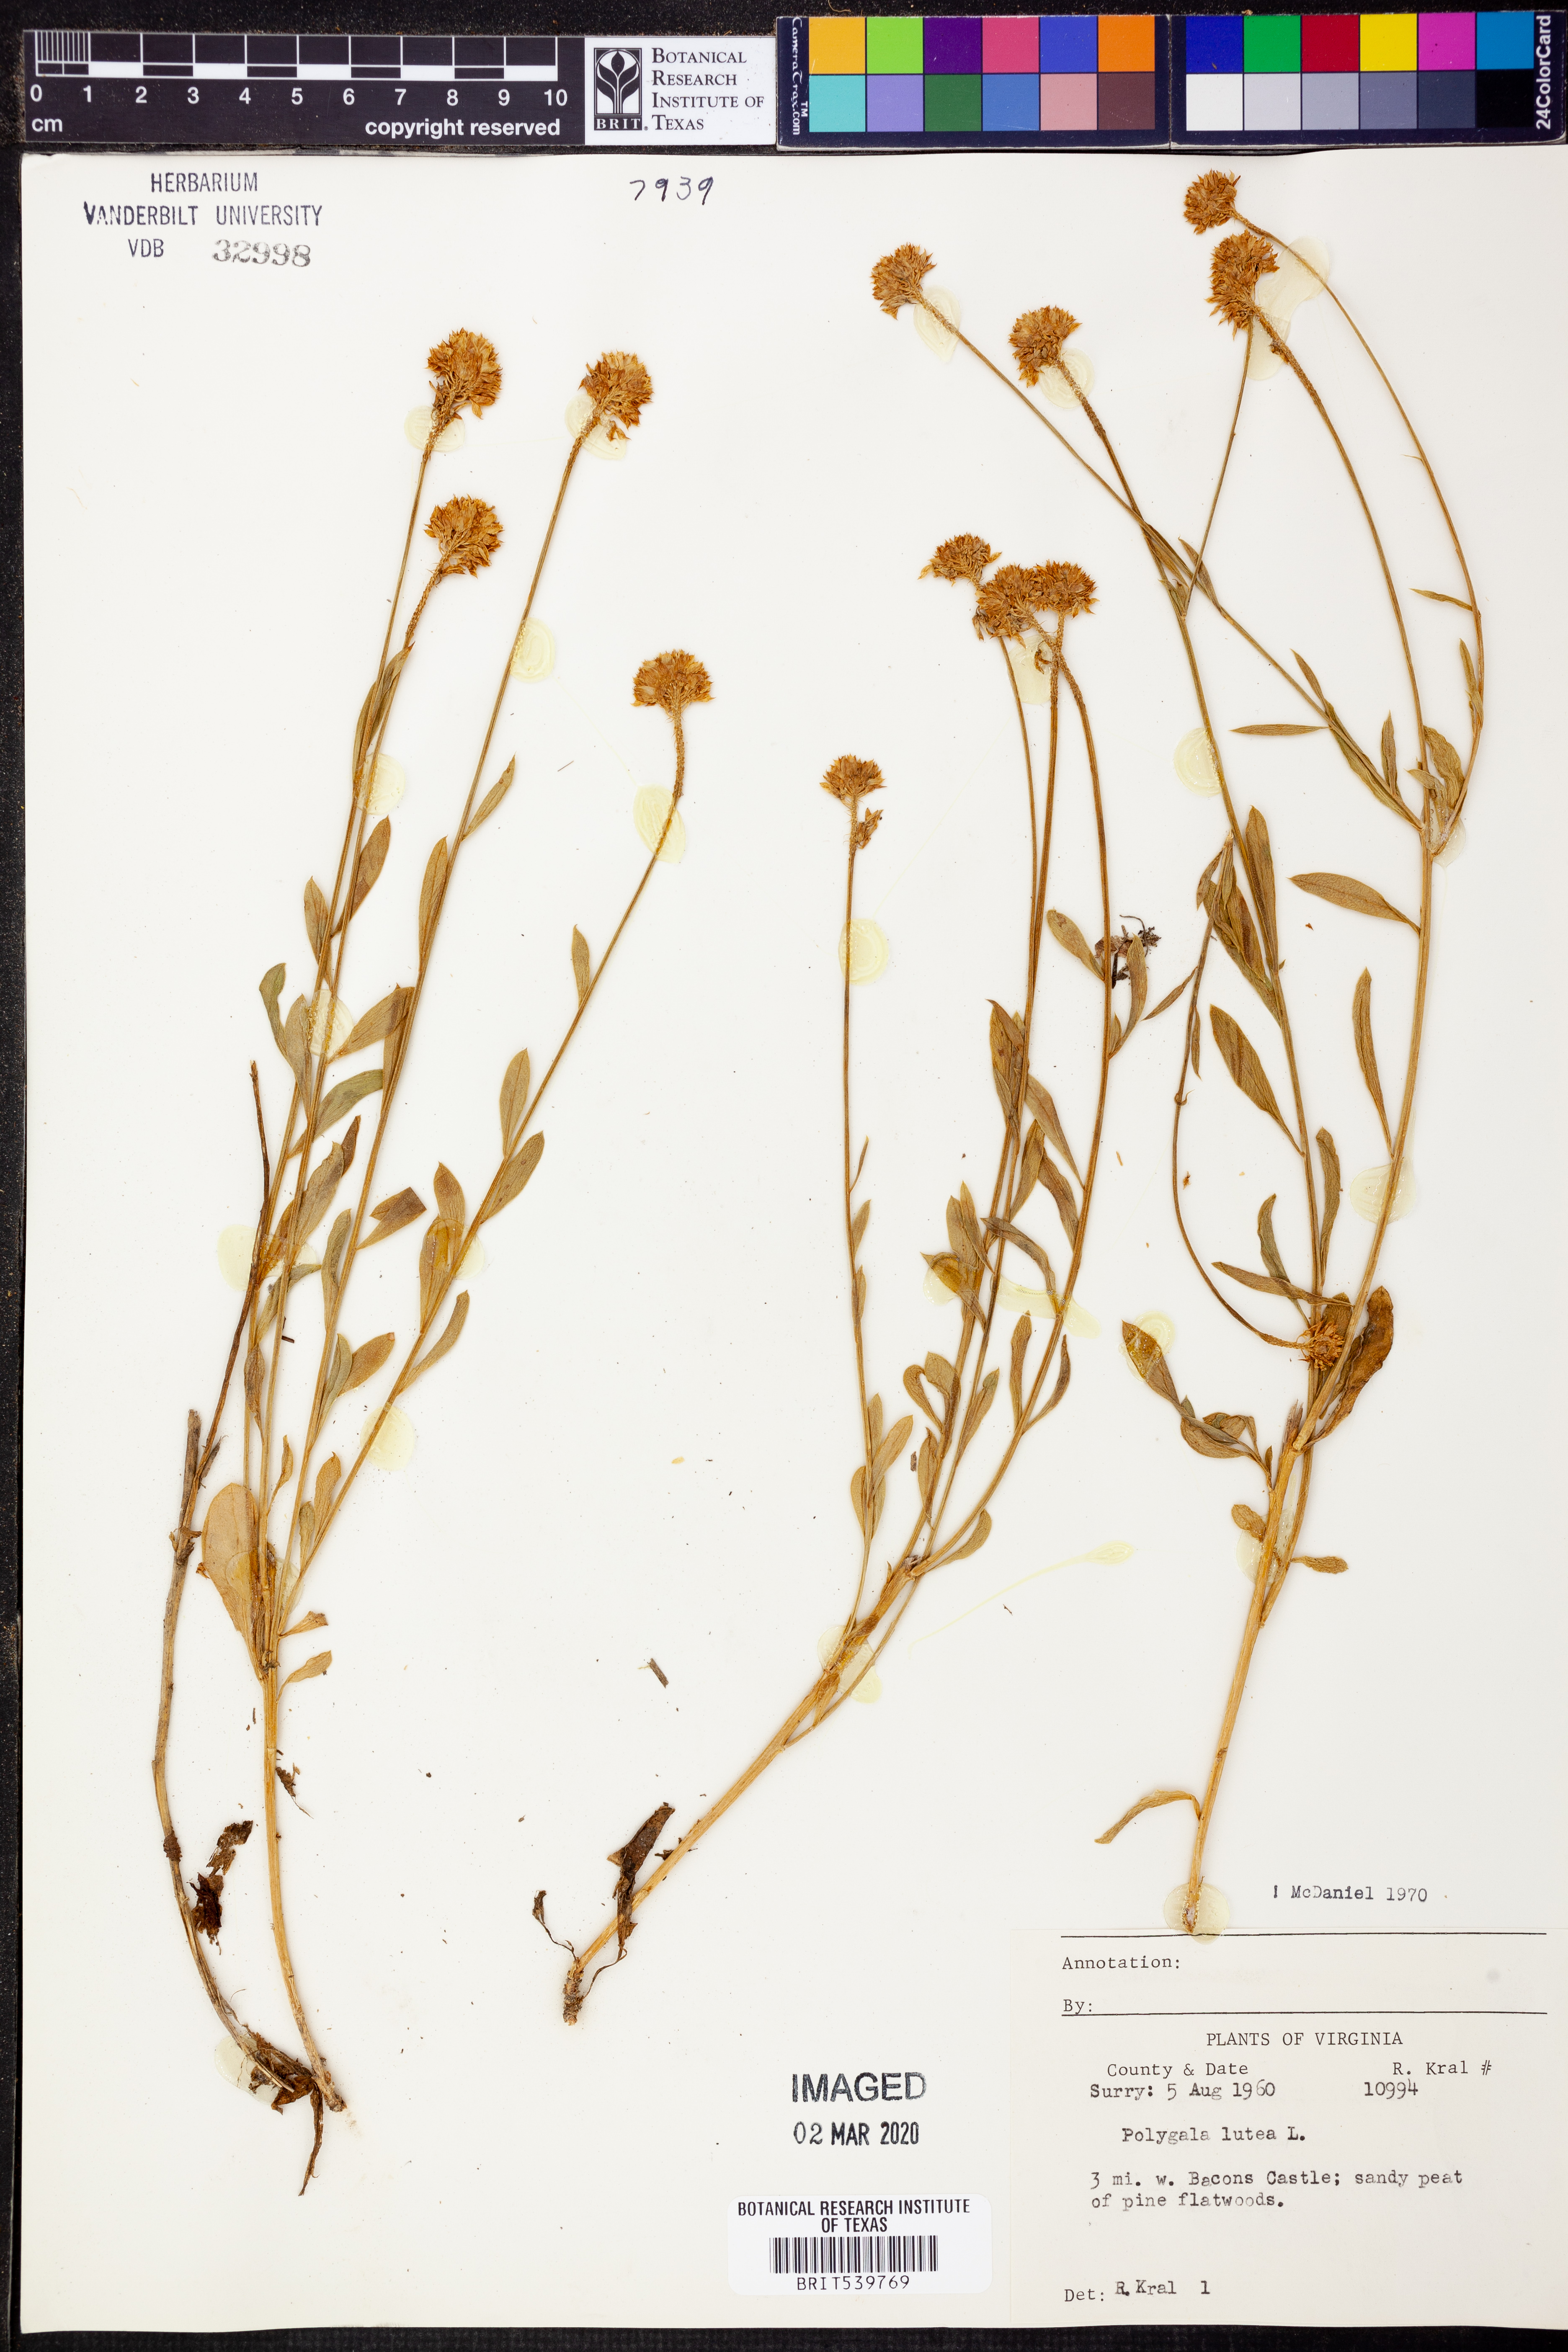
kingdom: Plantae
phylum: Tracheophyta
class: Magnoliopsida
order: Fabales
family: Polygalaceae
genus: Polygala
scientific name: Polygala lutea
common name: Orange milkwort
